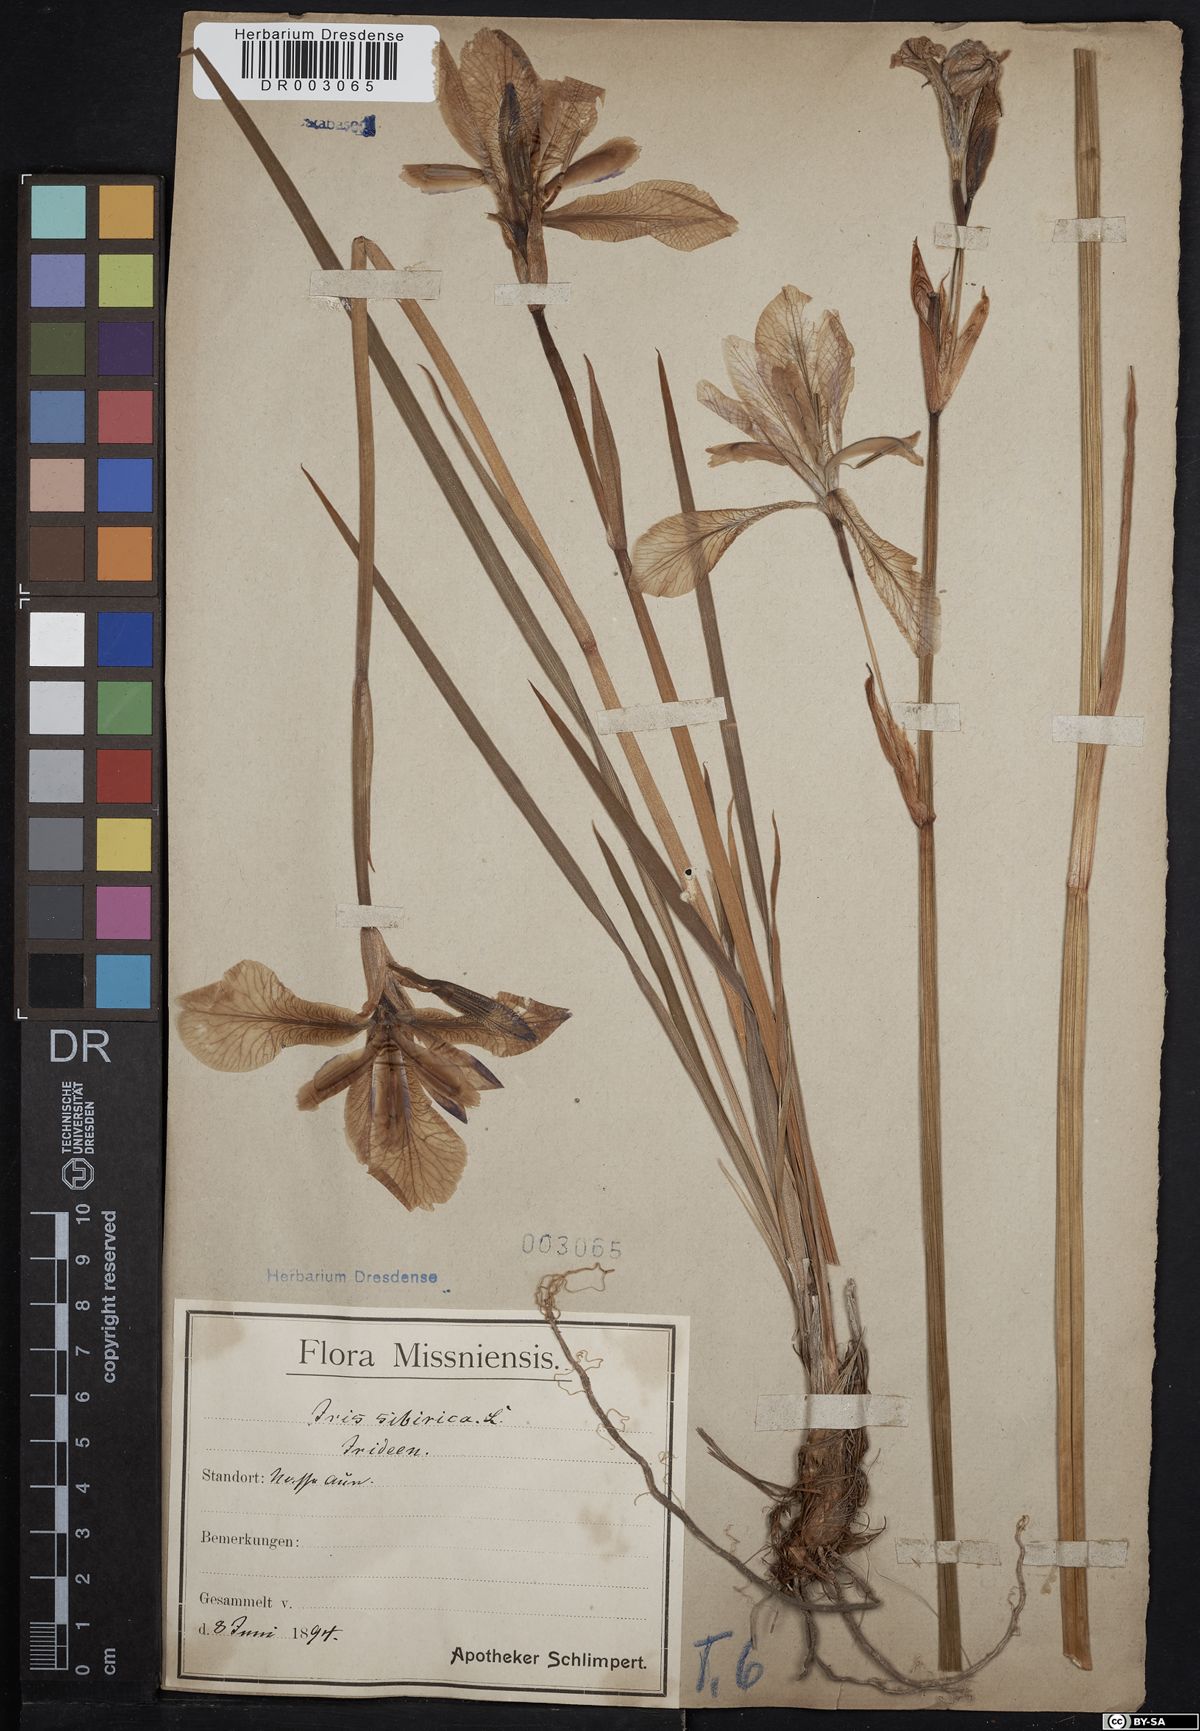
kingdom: Plantae
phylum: Tracheophyta
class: Liliopsida
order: Asparagales
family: Iridaceae
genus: Iris
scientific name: Iris sibirica
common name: Siberian iris
